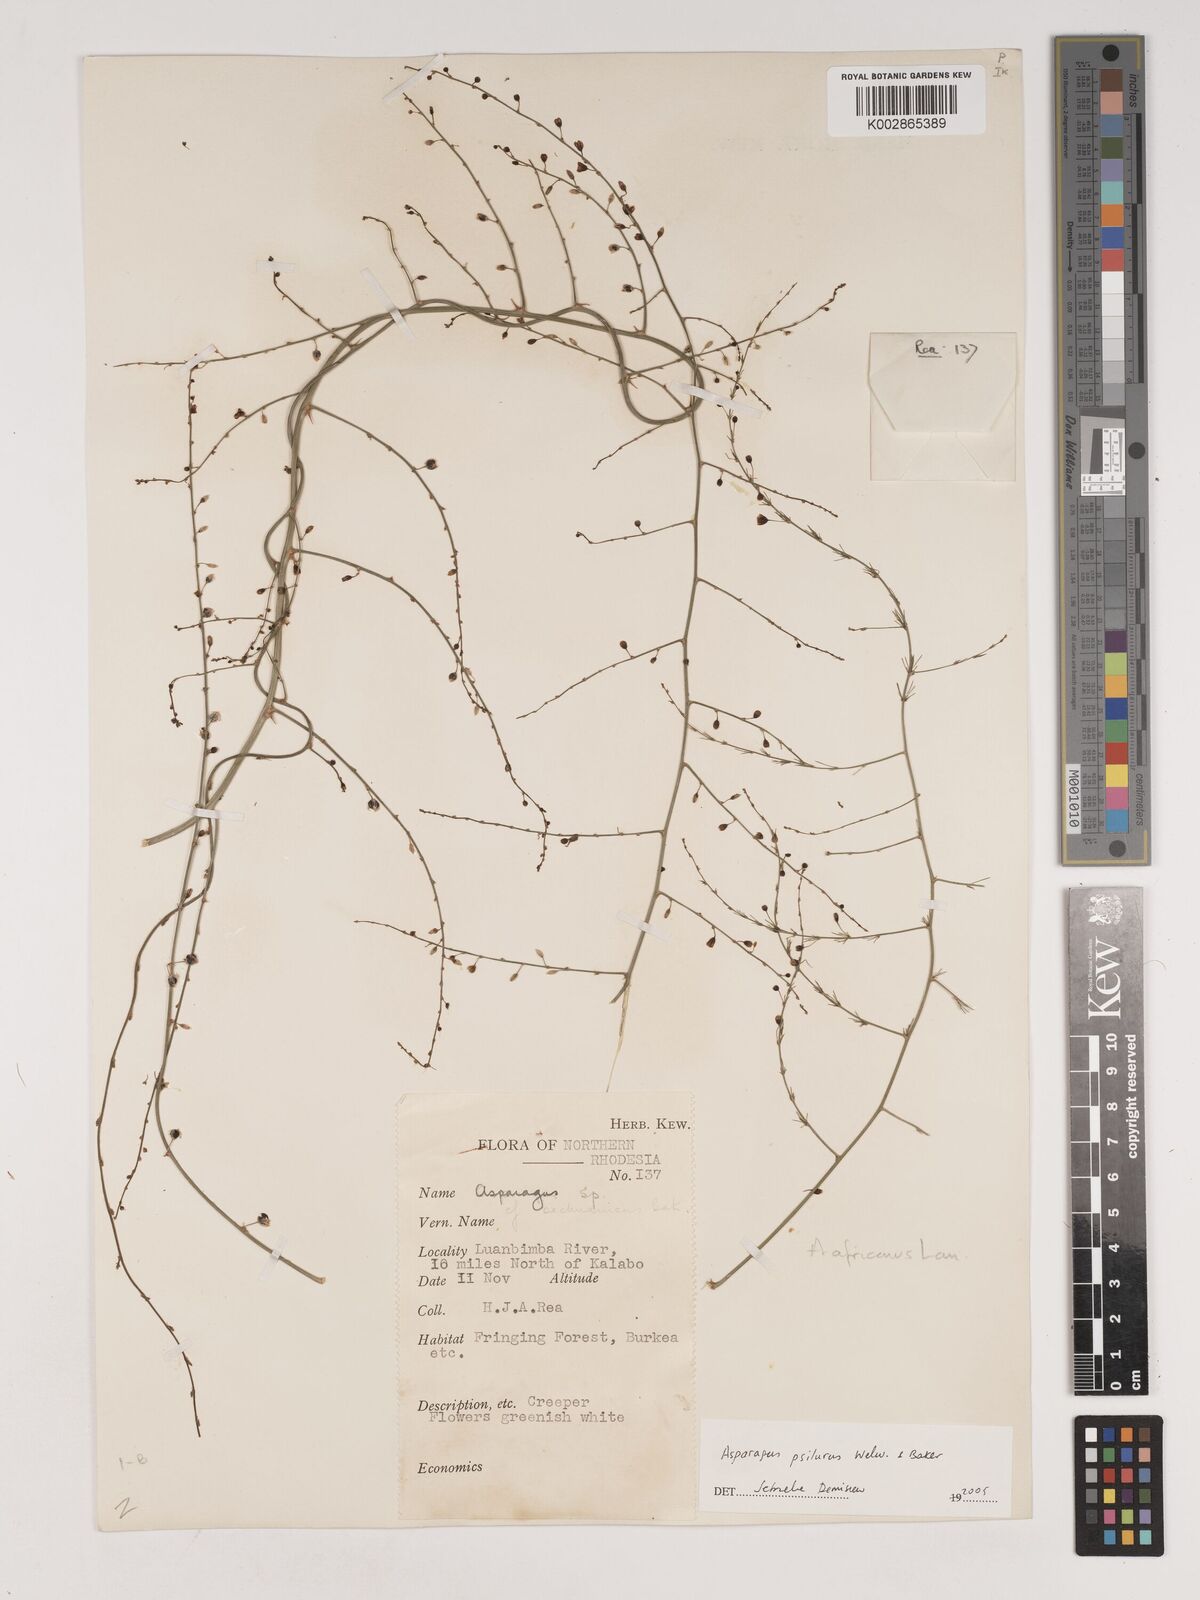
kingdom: Plantae
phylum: Tracheophyta
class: Liliopsida
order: Asparagales
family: Asparagaceae
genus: Asparagus
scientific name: Asparagus psilurus
